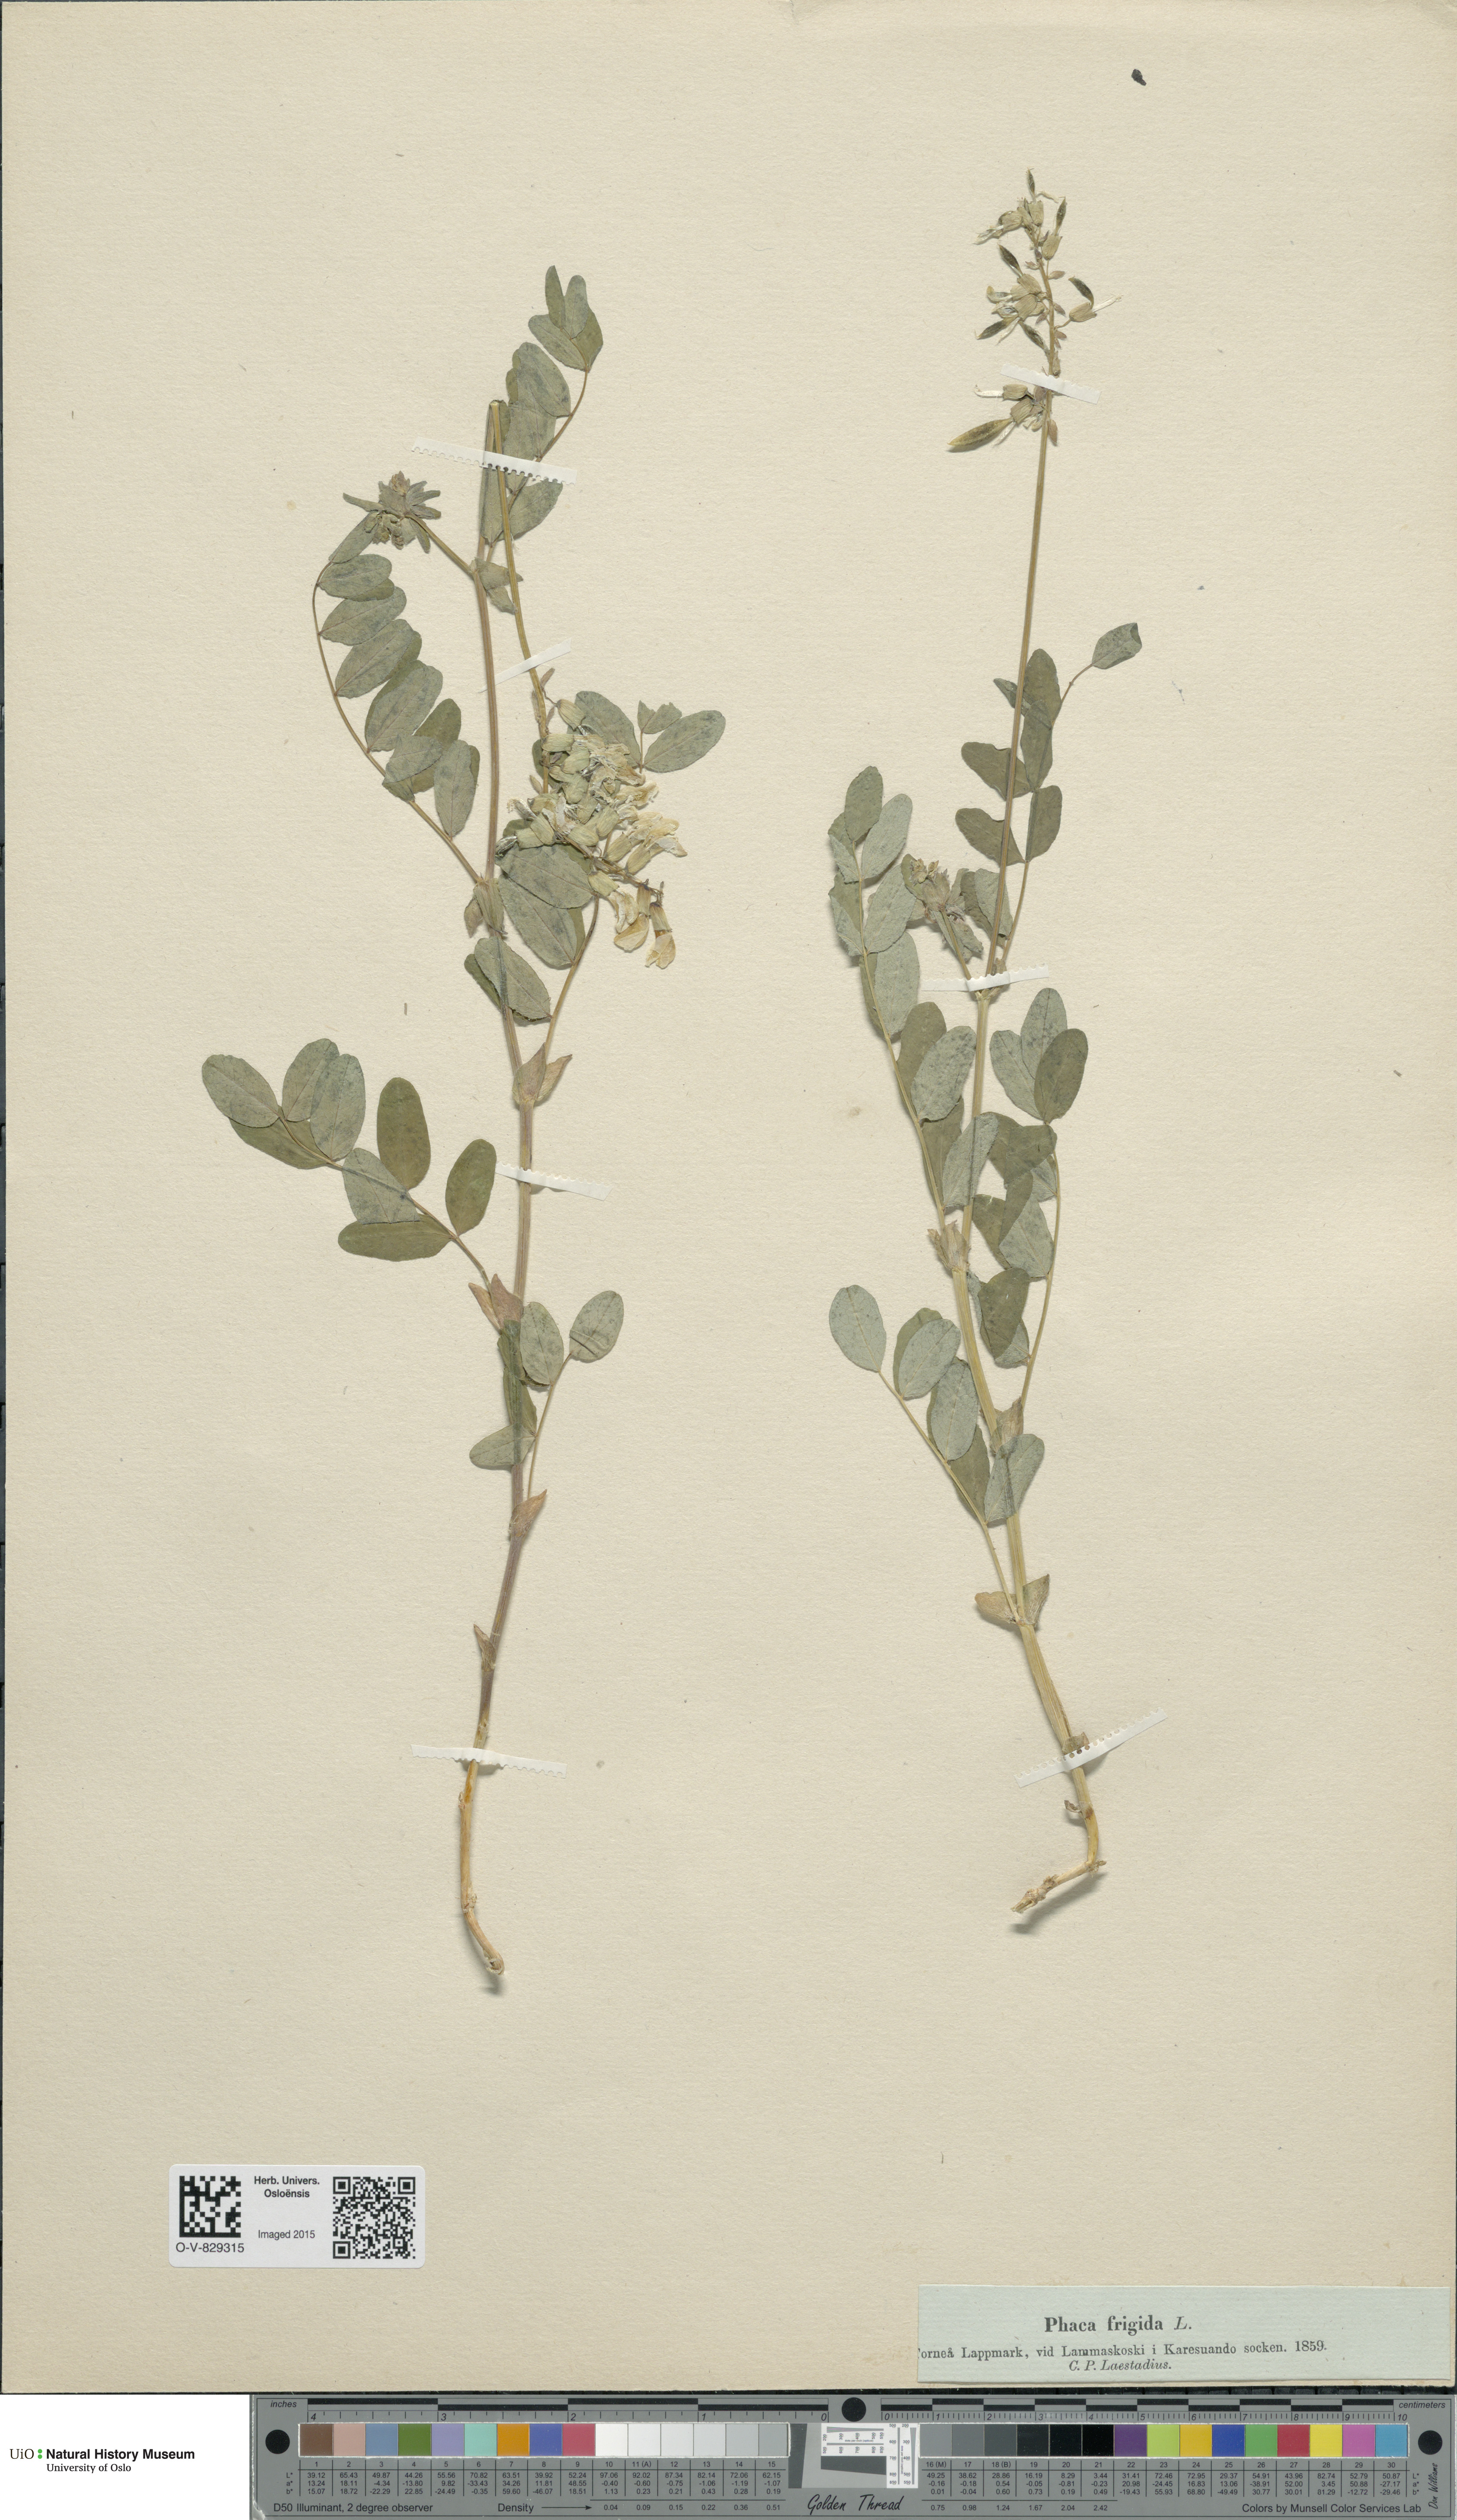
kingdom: Plantae
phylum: Tracheophyta
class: Magnoliopsida
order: Fabales
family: Fabaceae
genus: Astragalus
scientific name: Astragalus frigidus
